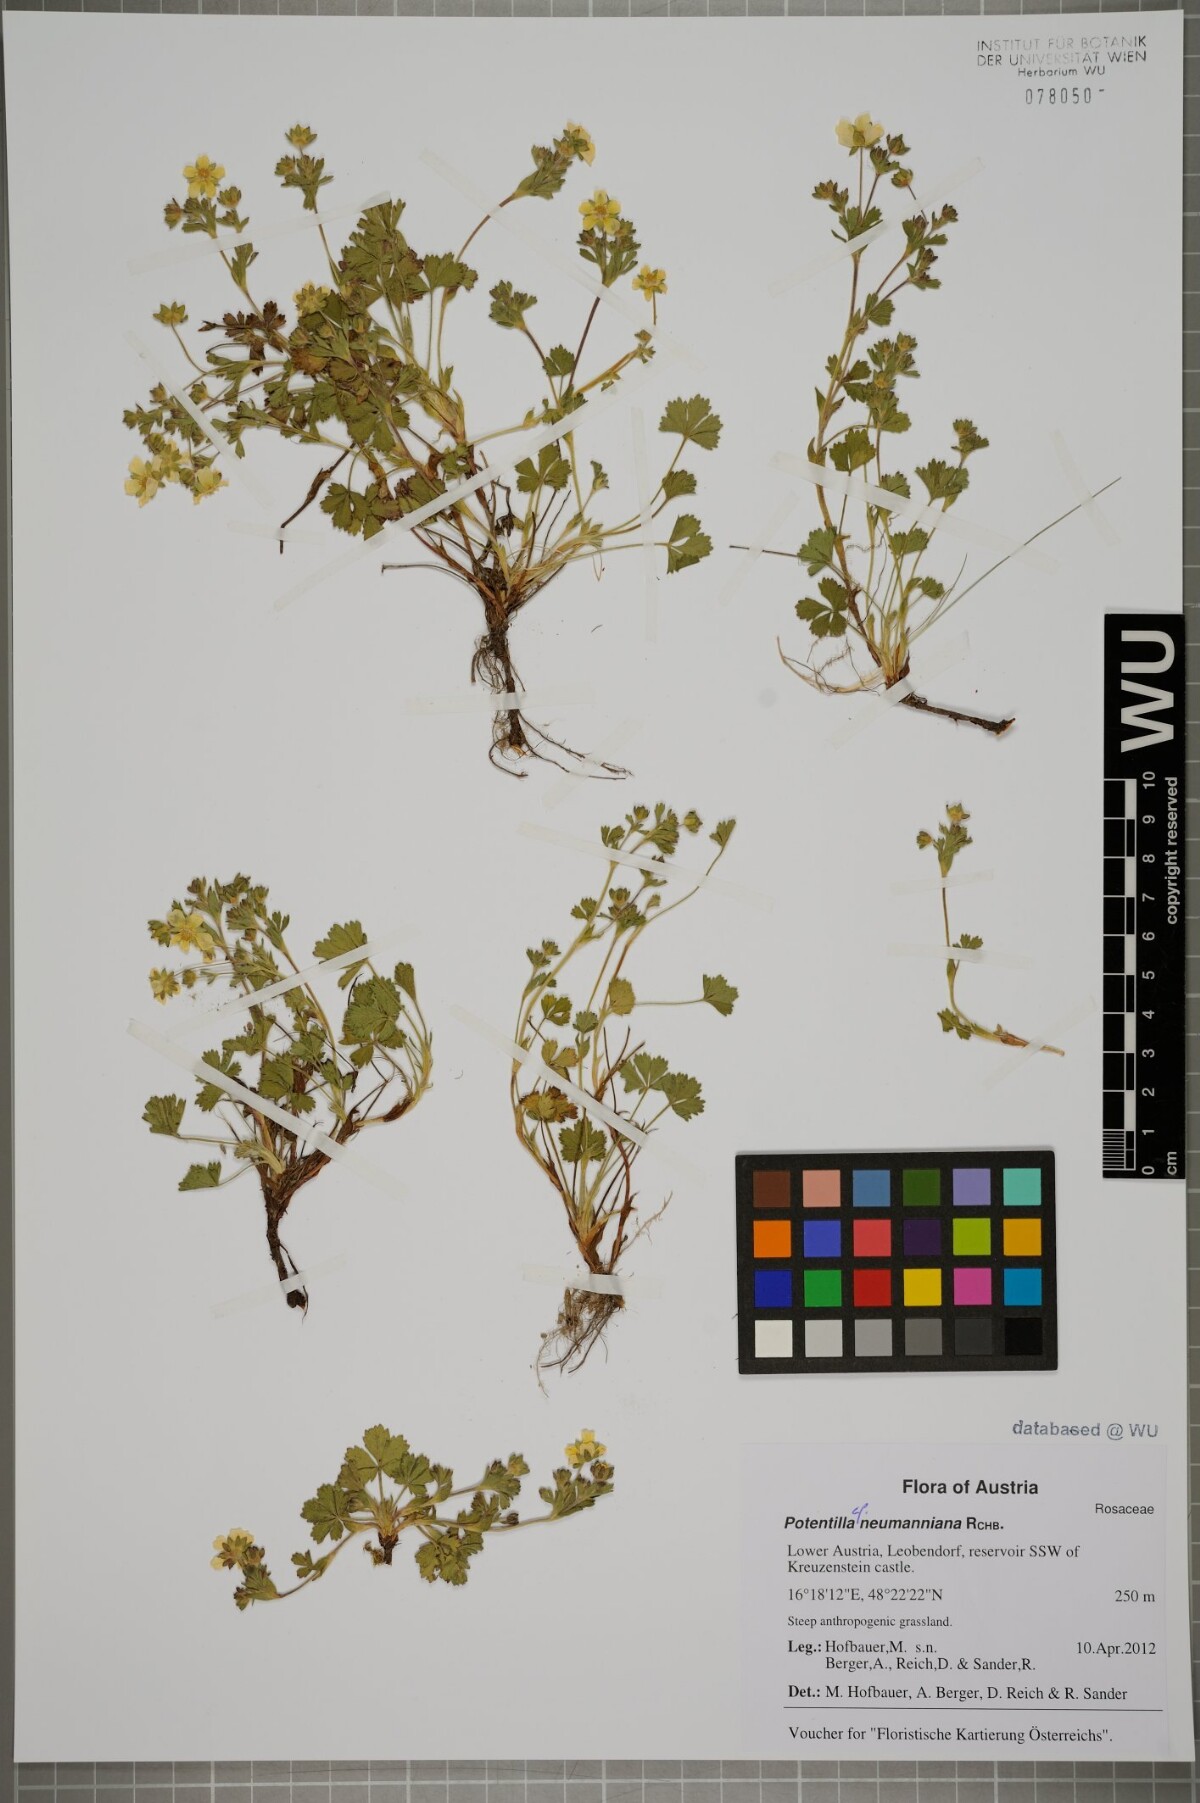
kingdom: Plantae
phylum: Tracheophyta
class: Magnoliopsida
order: Rosales
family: Rosaceae
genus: Potentilla
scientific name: Potentilla verna
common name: Spring cinquefoil
